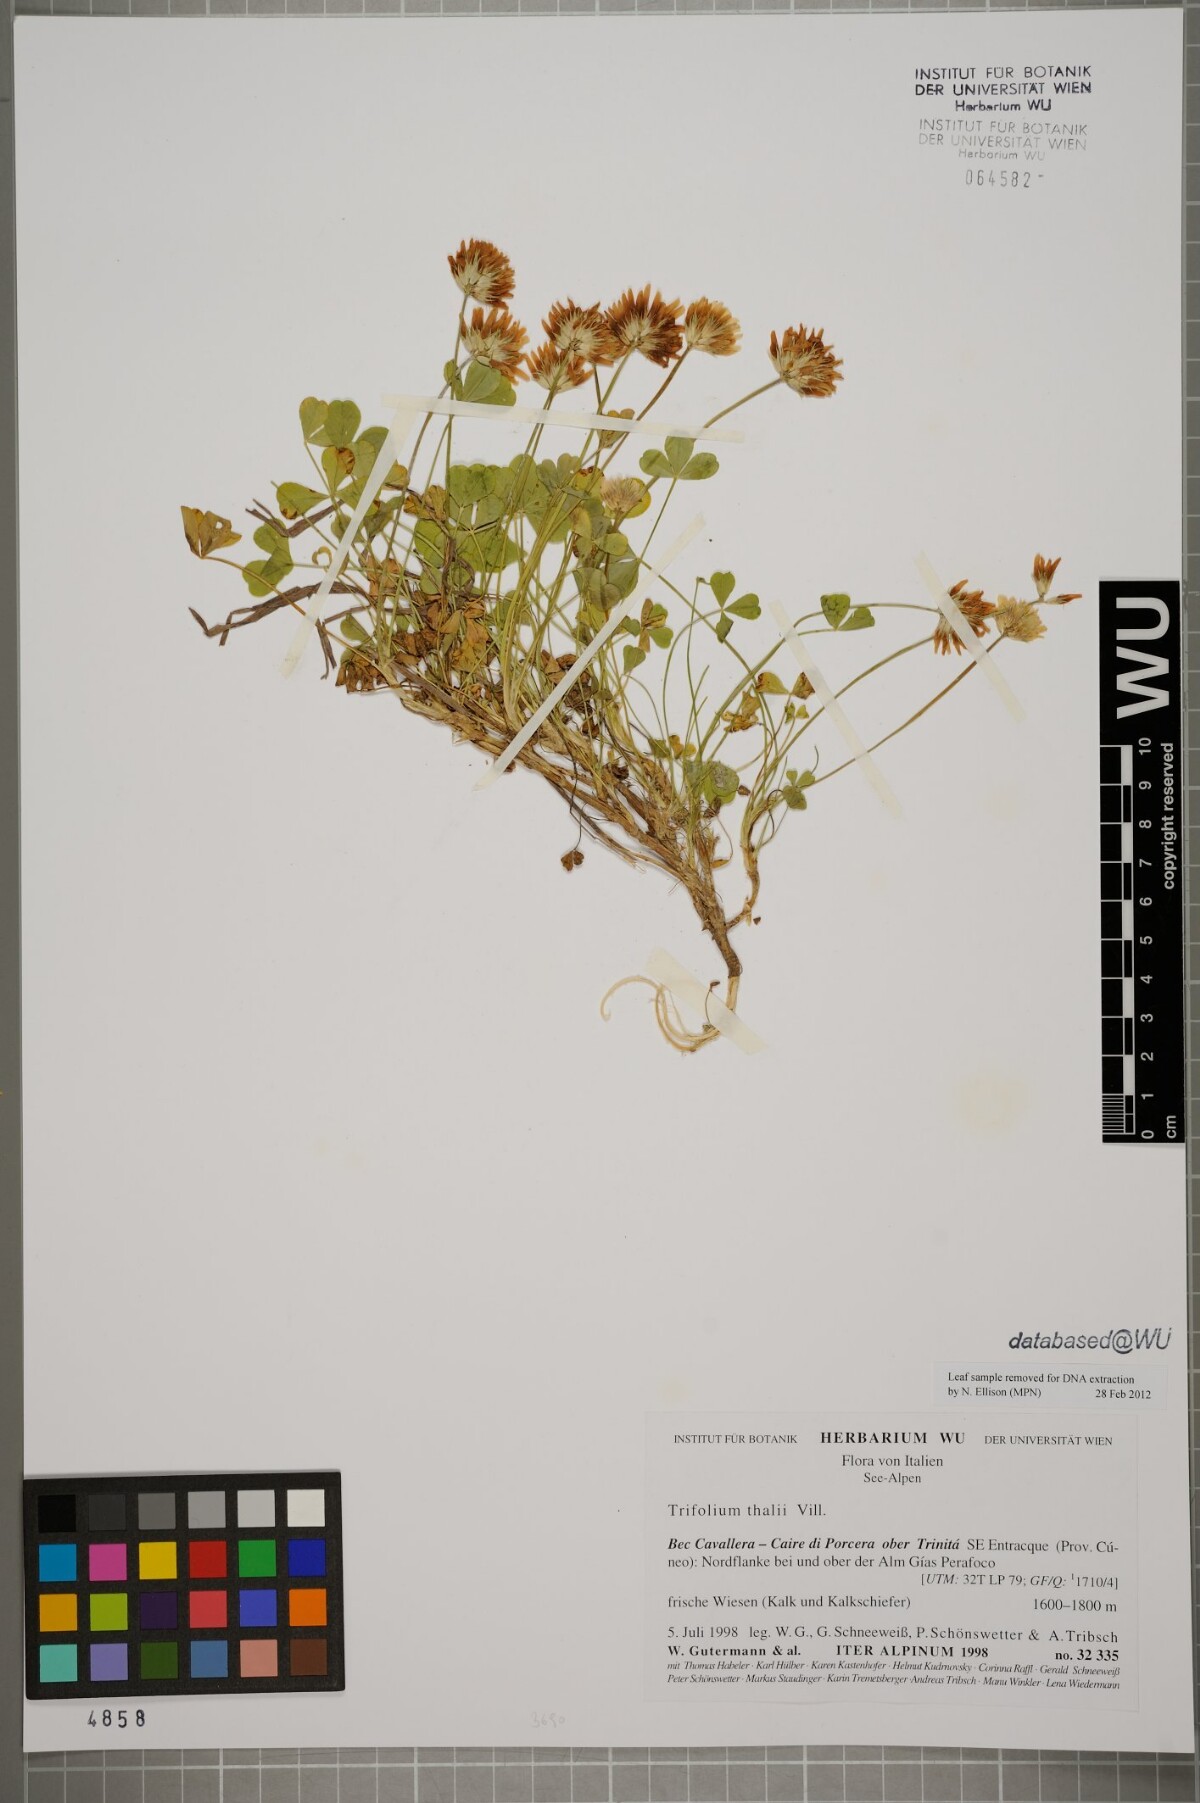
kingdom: Plantae
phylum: Tracheophyta
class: Magnoliopsida
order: Fabales
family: Fabaceae
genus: Trifolium
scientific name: Trifolium thalii
